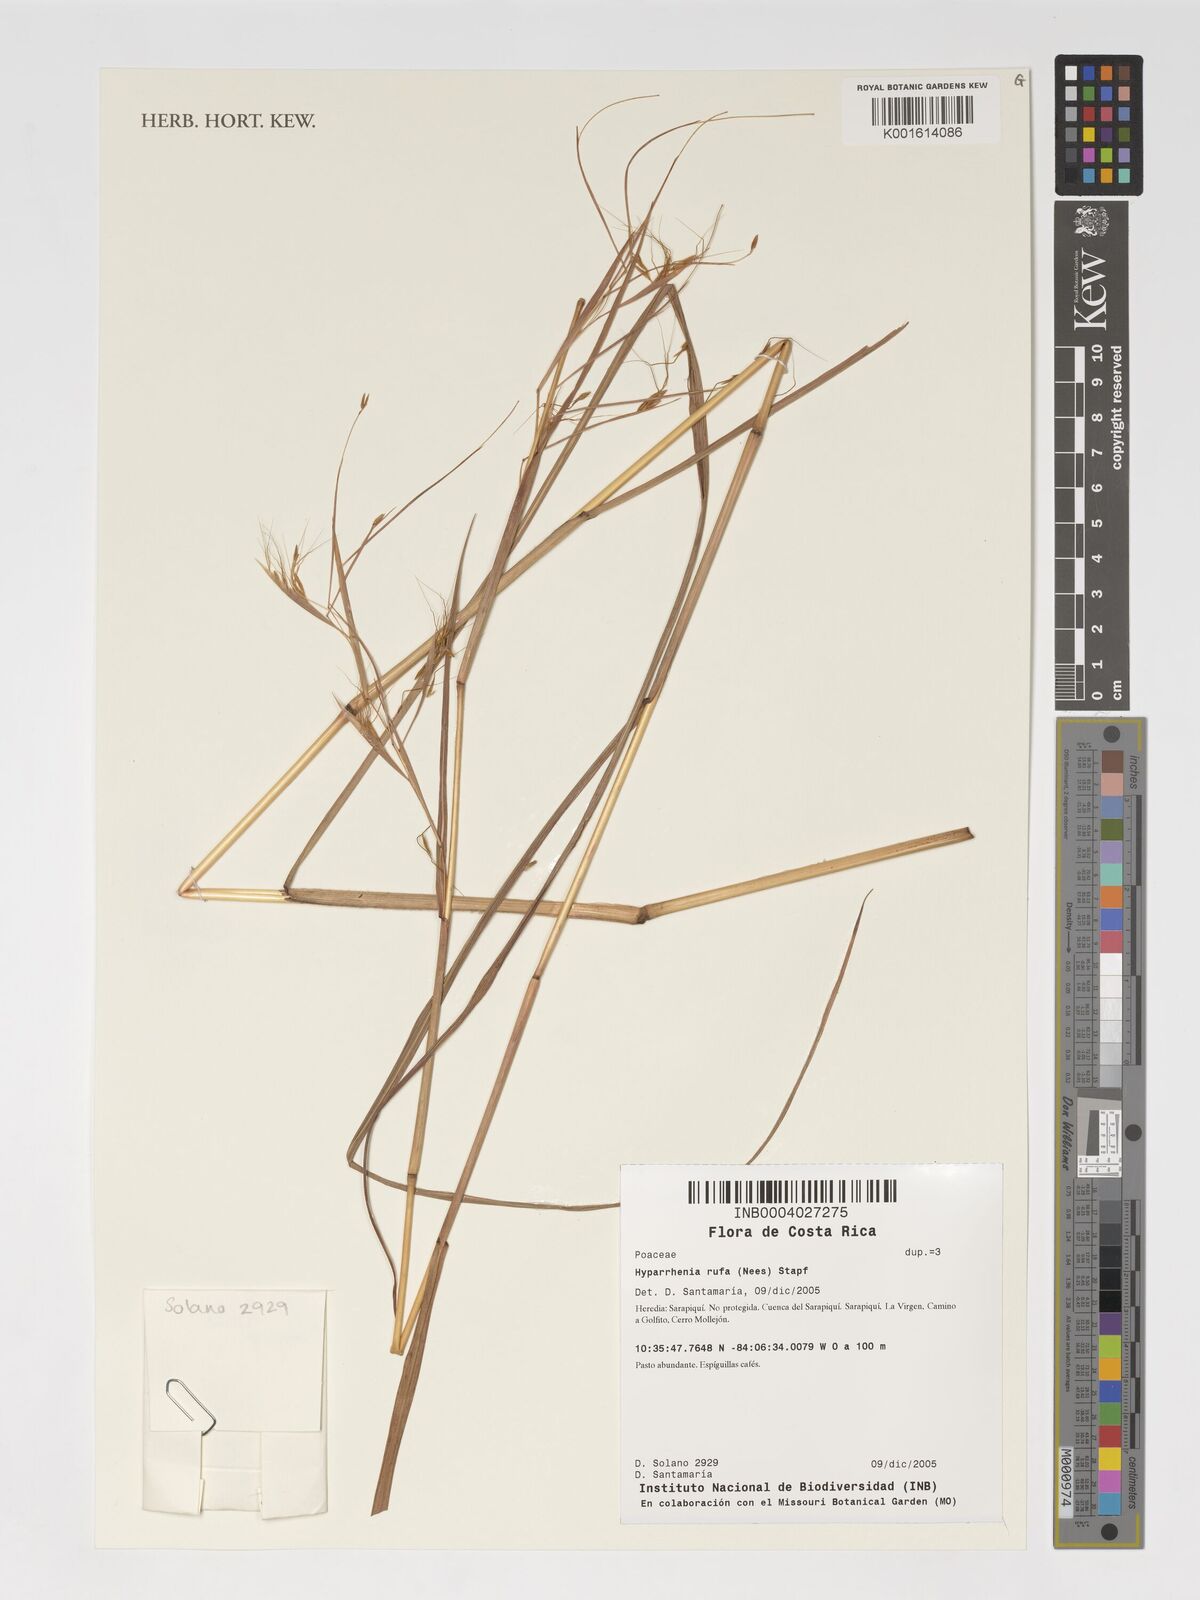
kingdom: Plantae
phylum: Tracheophyta
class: Liliopsida
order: Poales
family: Poaceae
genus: Hyparrhenia
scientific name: Hyparrhenia rufa
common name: Jaraguagrass
